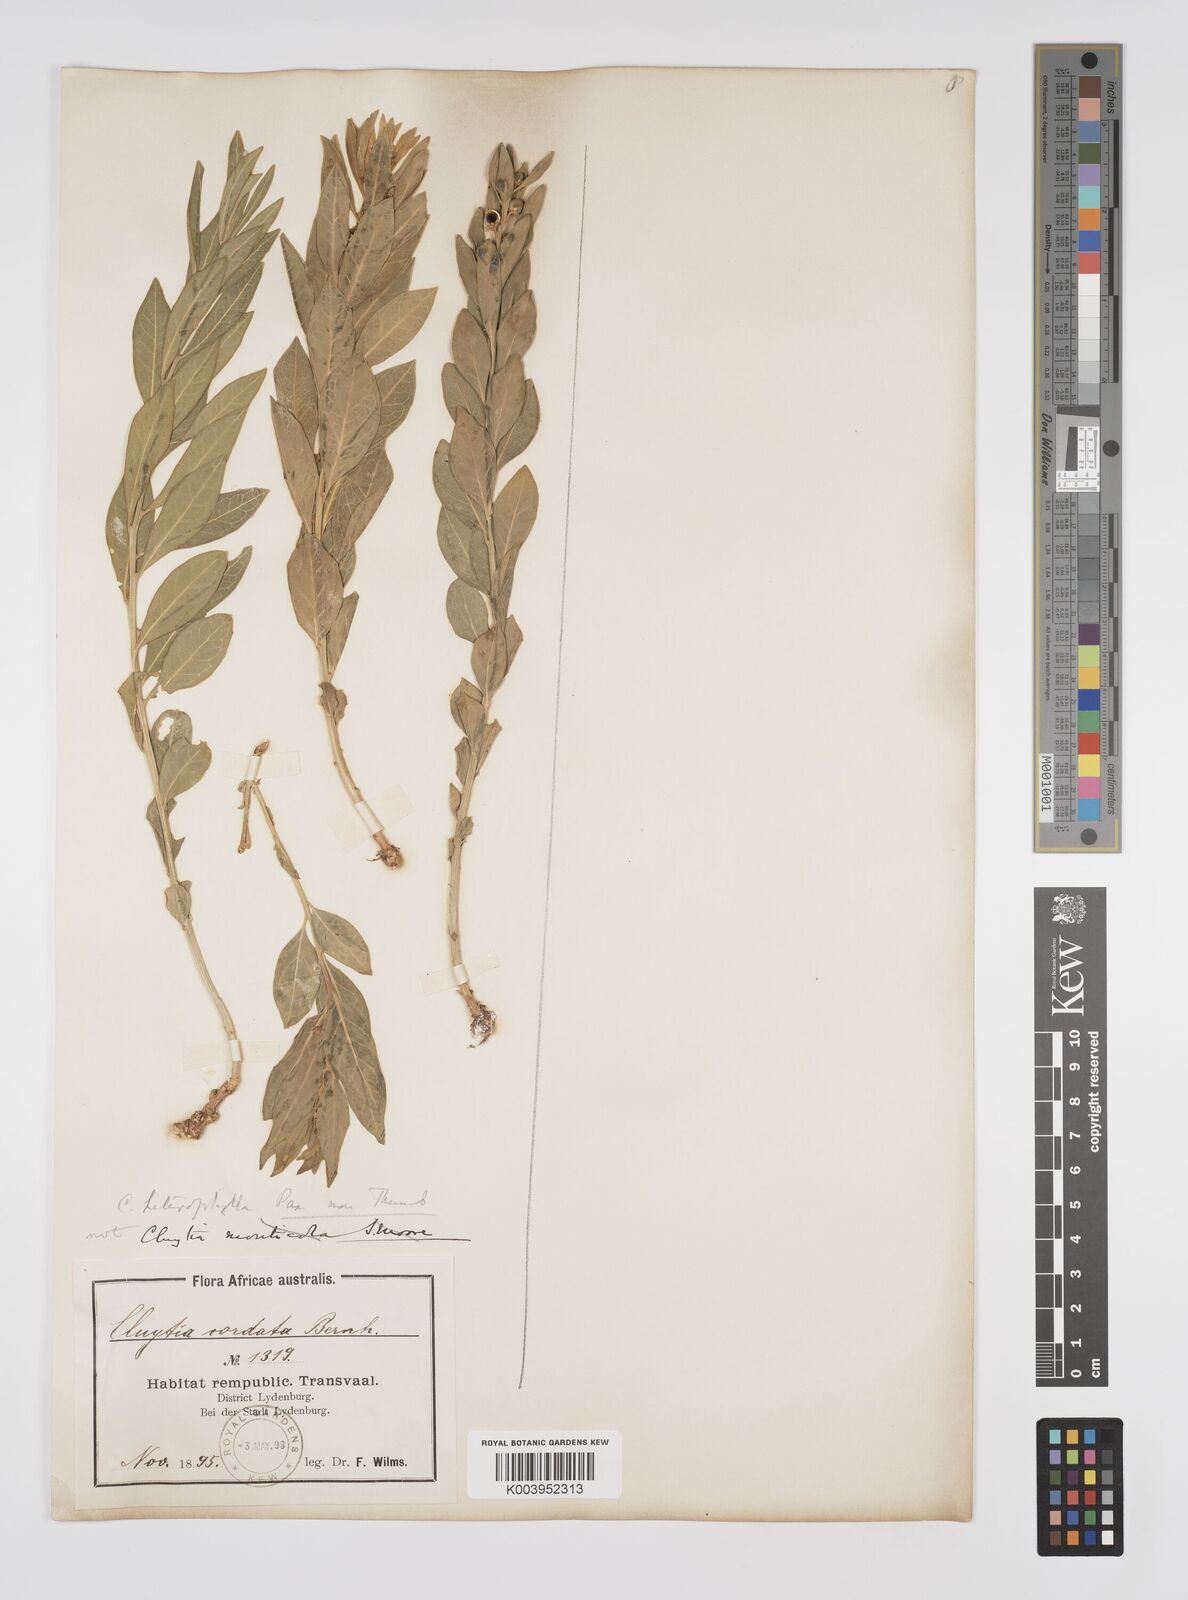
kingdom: Plantae
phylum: Tracheophyta
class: Magnoliopsida
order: Malpighiales
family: Peraceae
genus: Clutia
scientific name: Clutia
